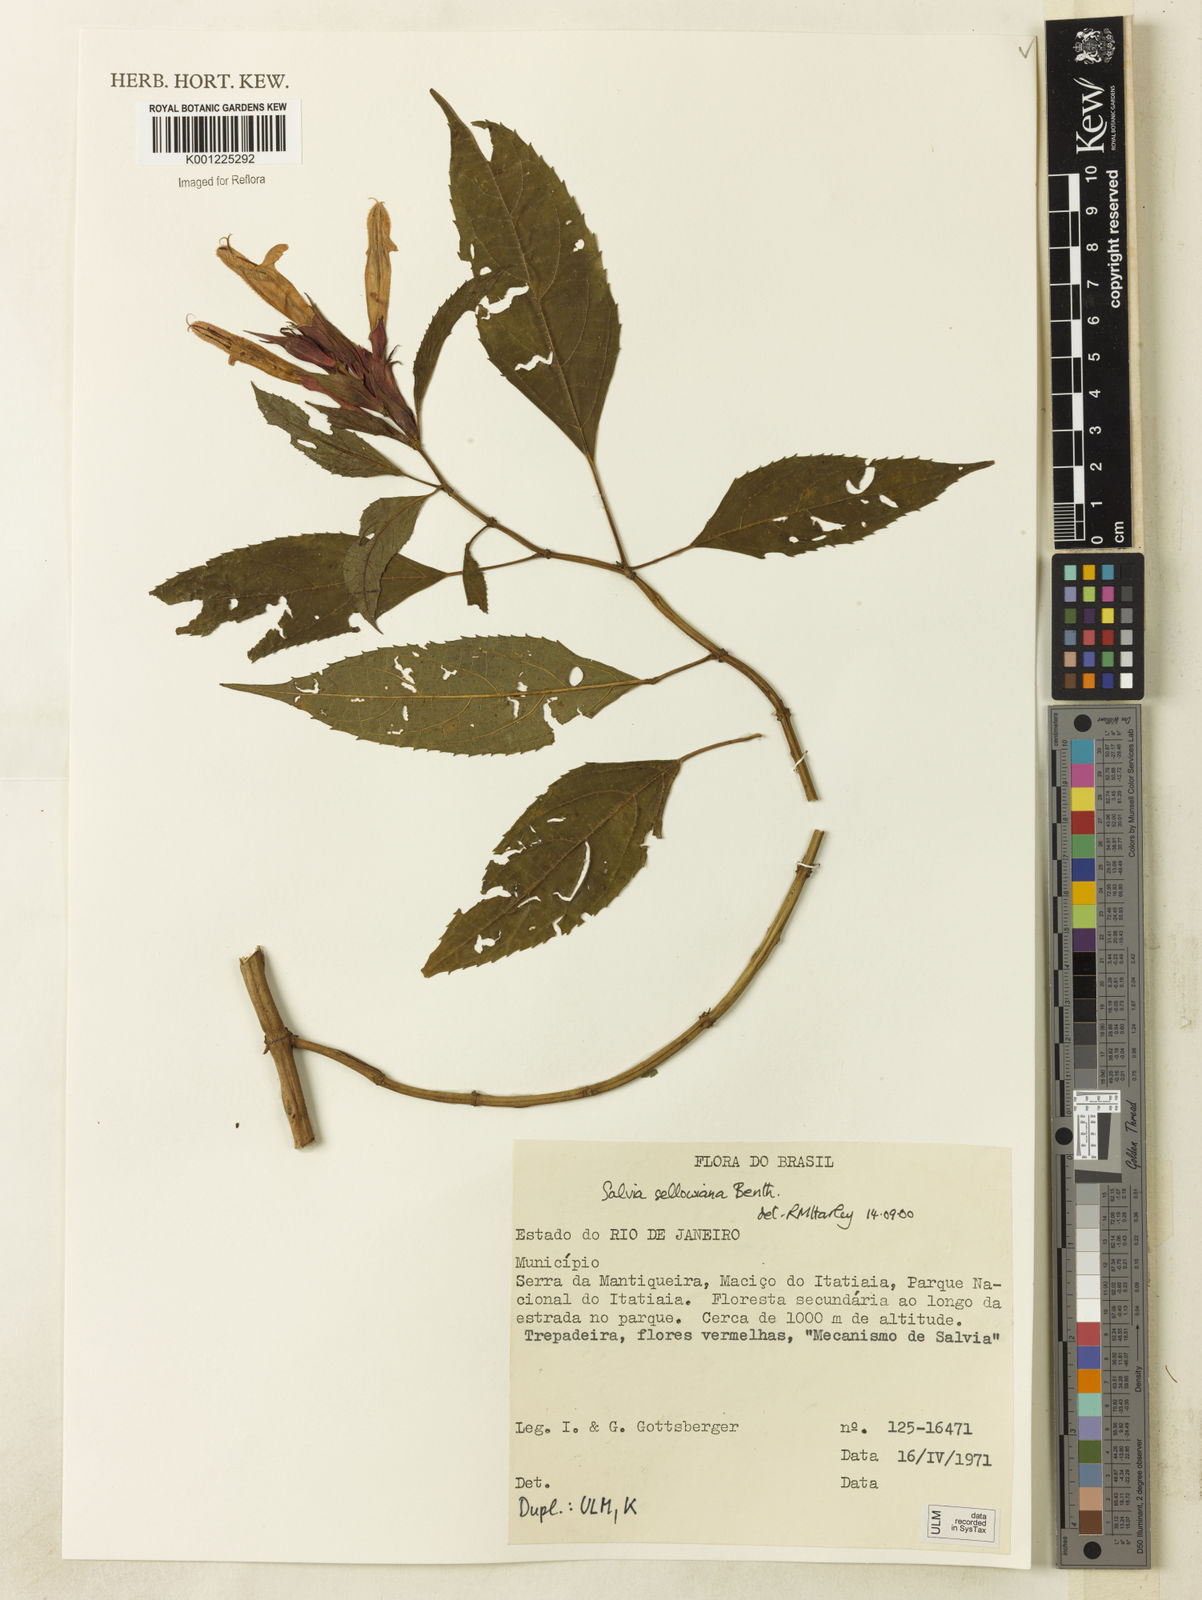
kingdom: Plantae
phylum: Tracheophyta
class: Magnoliopsida
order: Lamiales
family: Lamiaceae
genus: Salvia
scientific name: Salvia sellowiana
